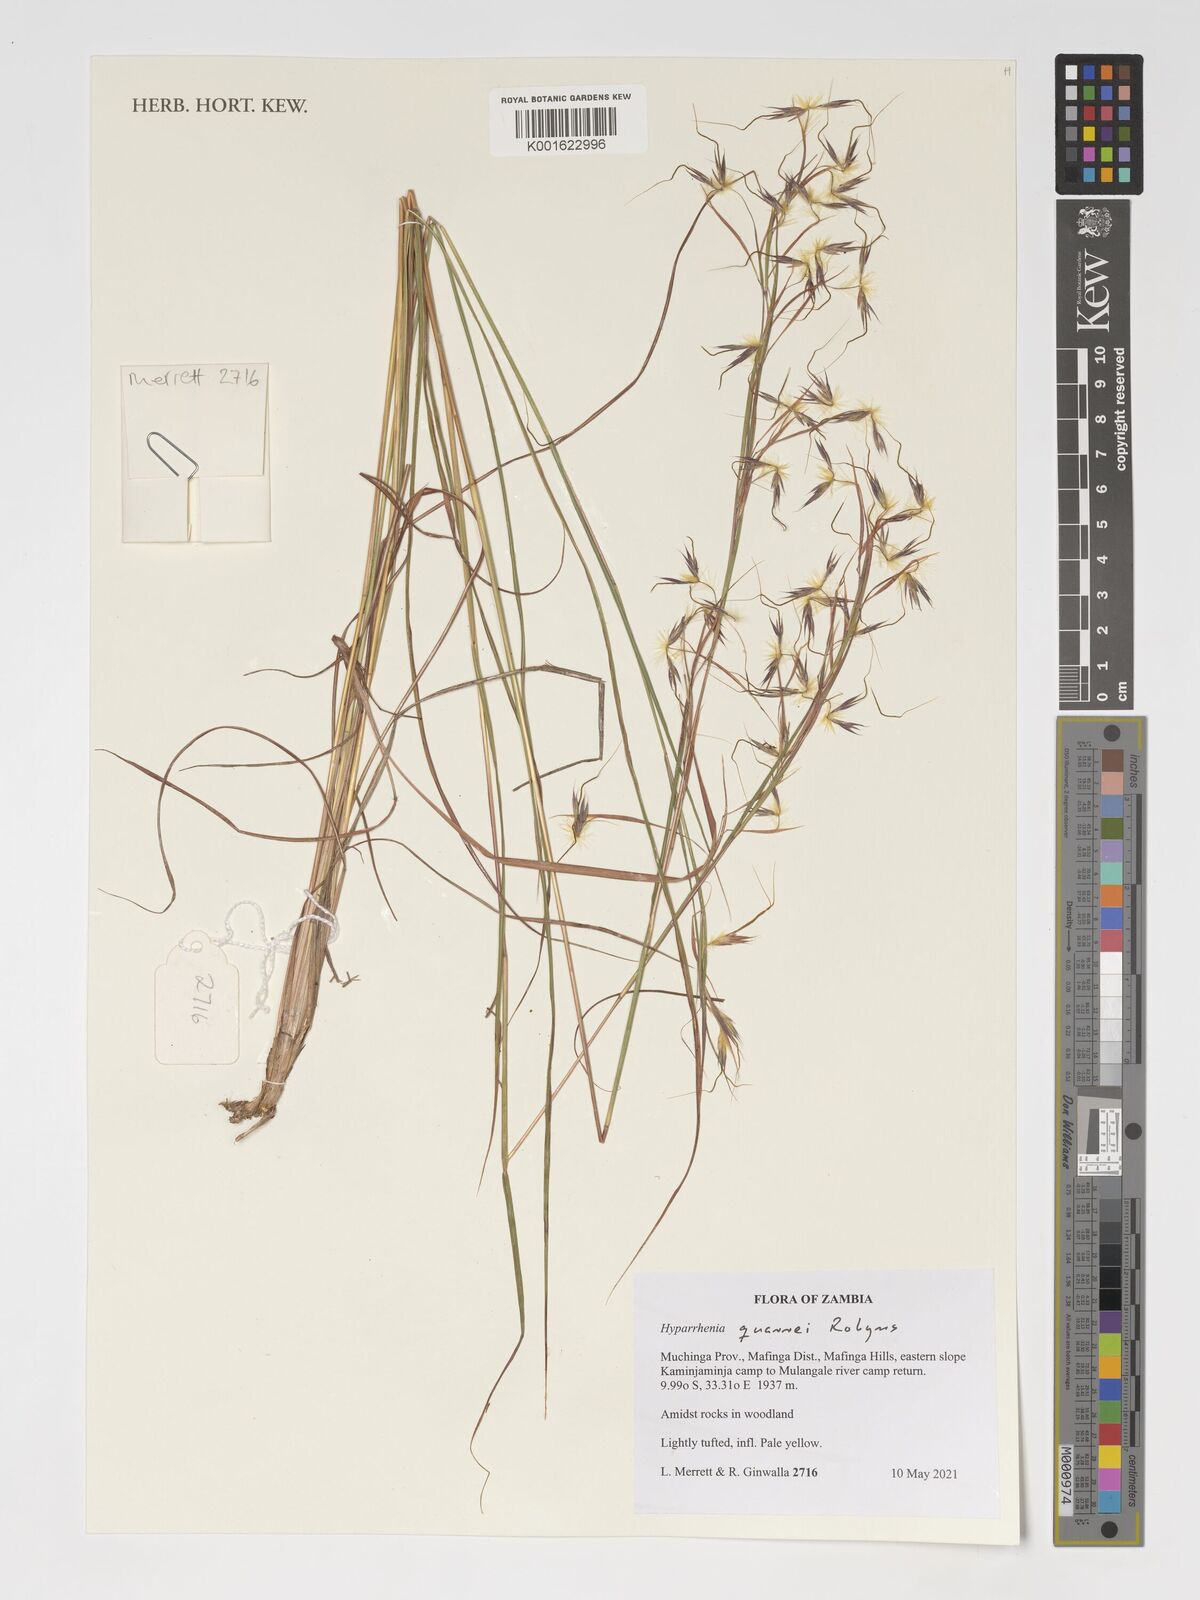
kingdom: Plantae
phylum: Tracheophyta
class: Liliopsida
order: Poales
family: Poaceae
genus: Hyparrhenia
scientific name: Hyparrhenia quarrei
